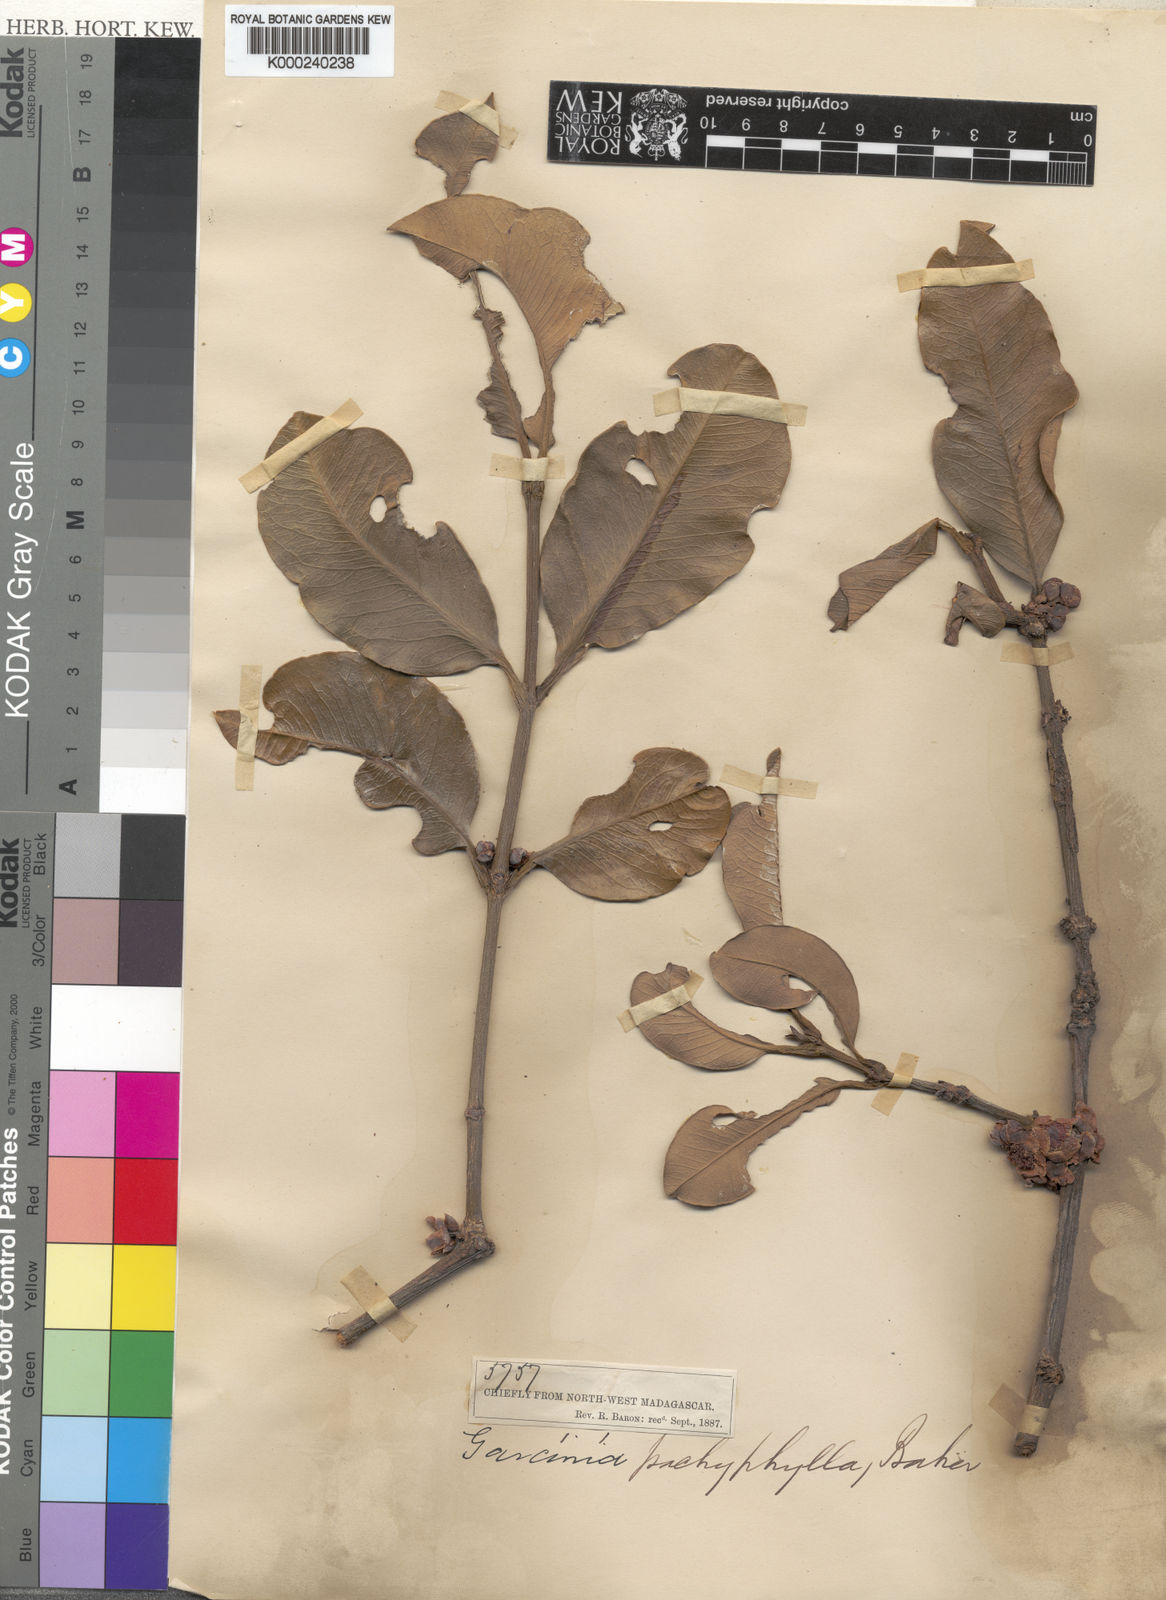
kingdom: Plantae
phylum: Tracheophyta
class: Magnoliopsida
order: Malpighiales
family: Clusiaceae
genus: Garcinia
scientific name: Garcinia madagascariensis
